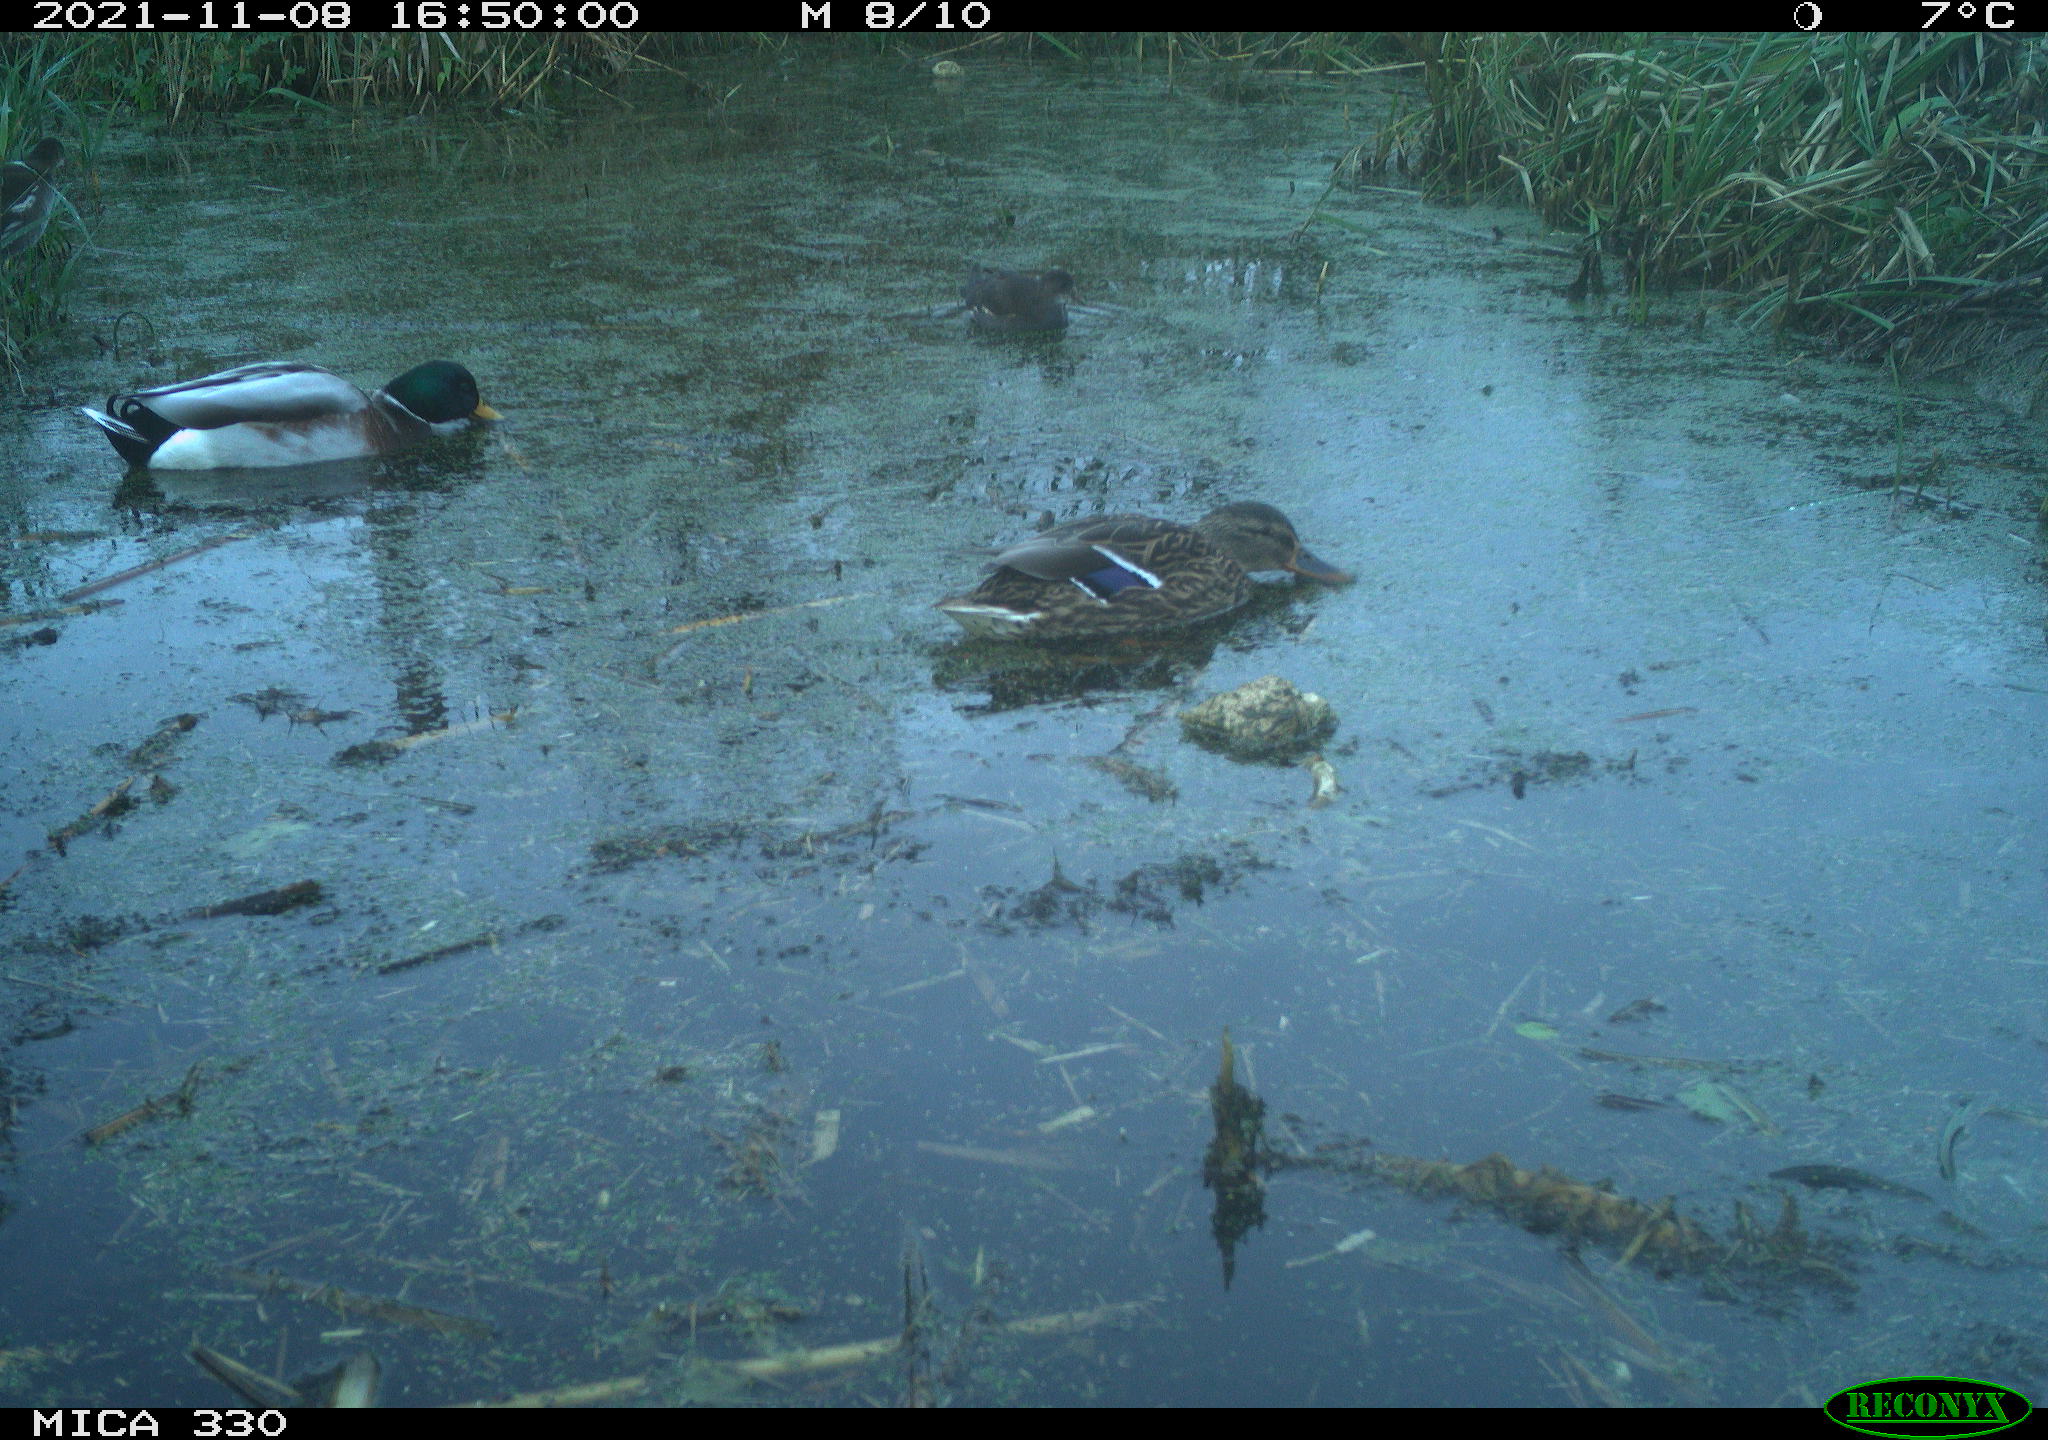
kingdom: Animalia
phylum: Chordata
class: Aves
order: Anseriformes
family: Anatidae
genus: Anas
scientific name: Anas platyrhynchos
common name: Mallard
